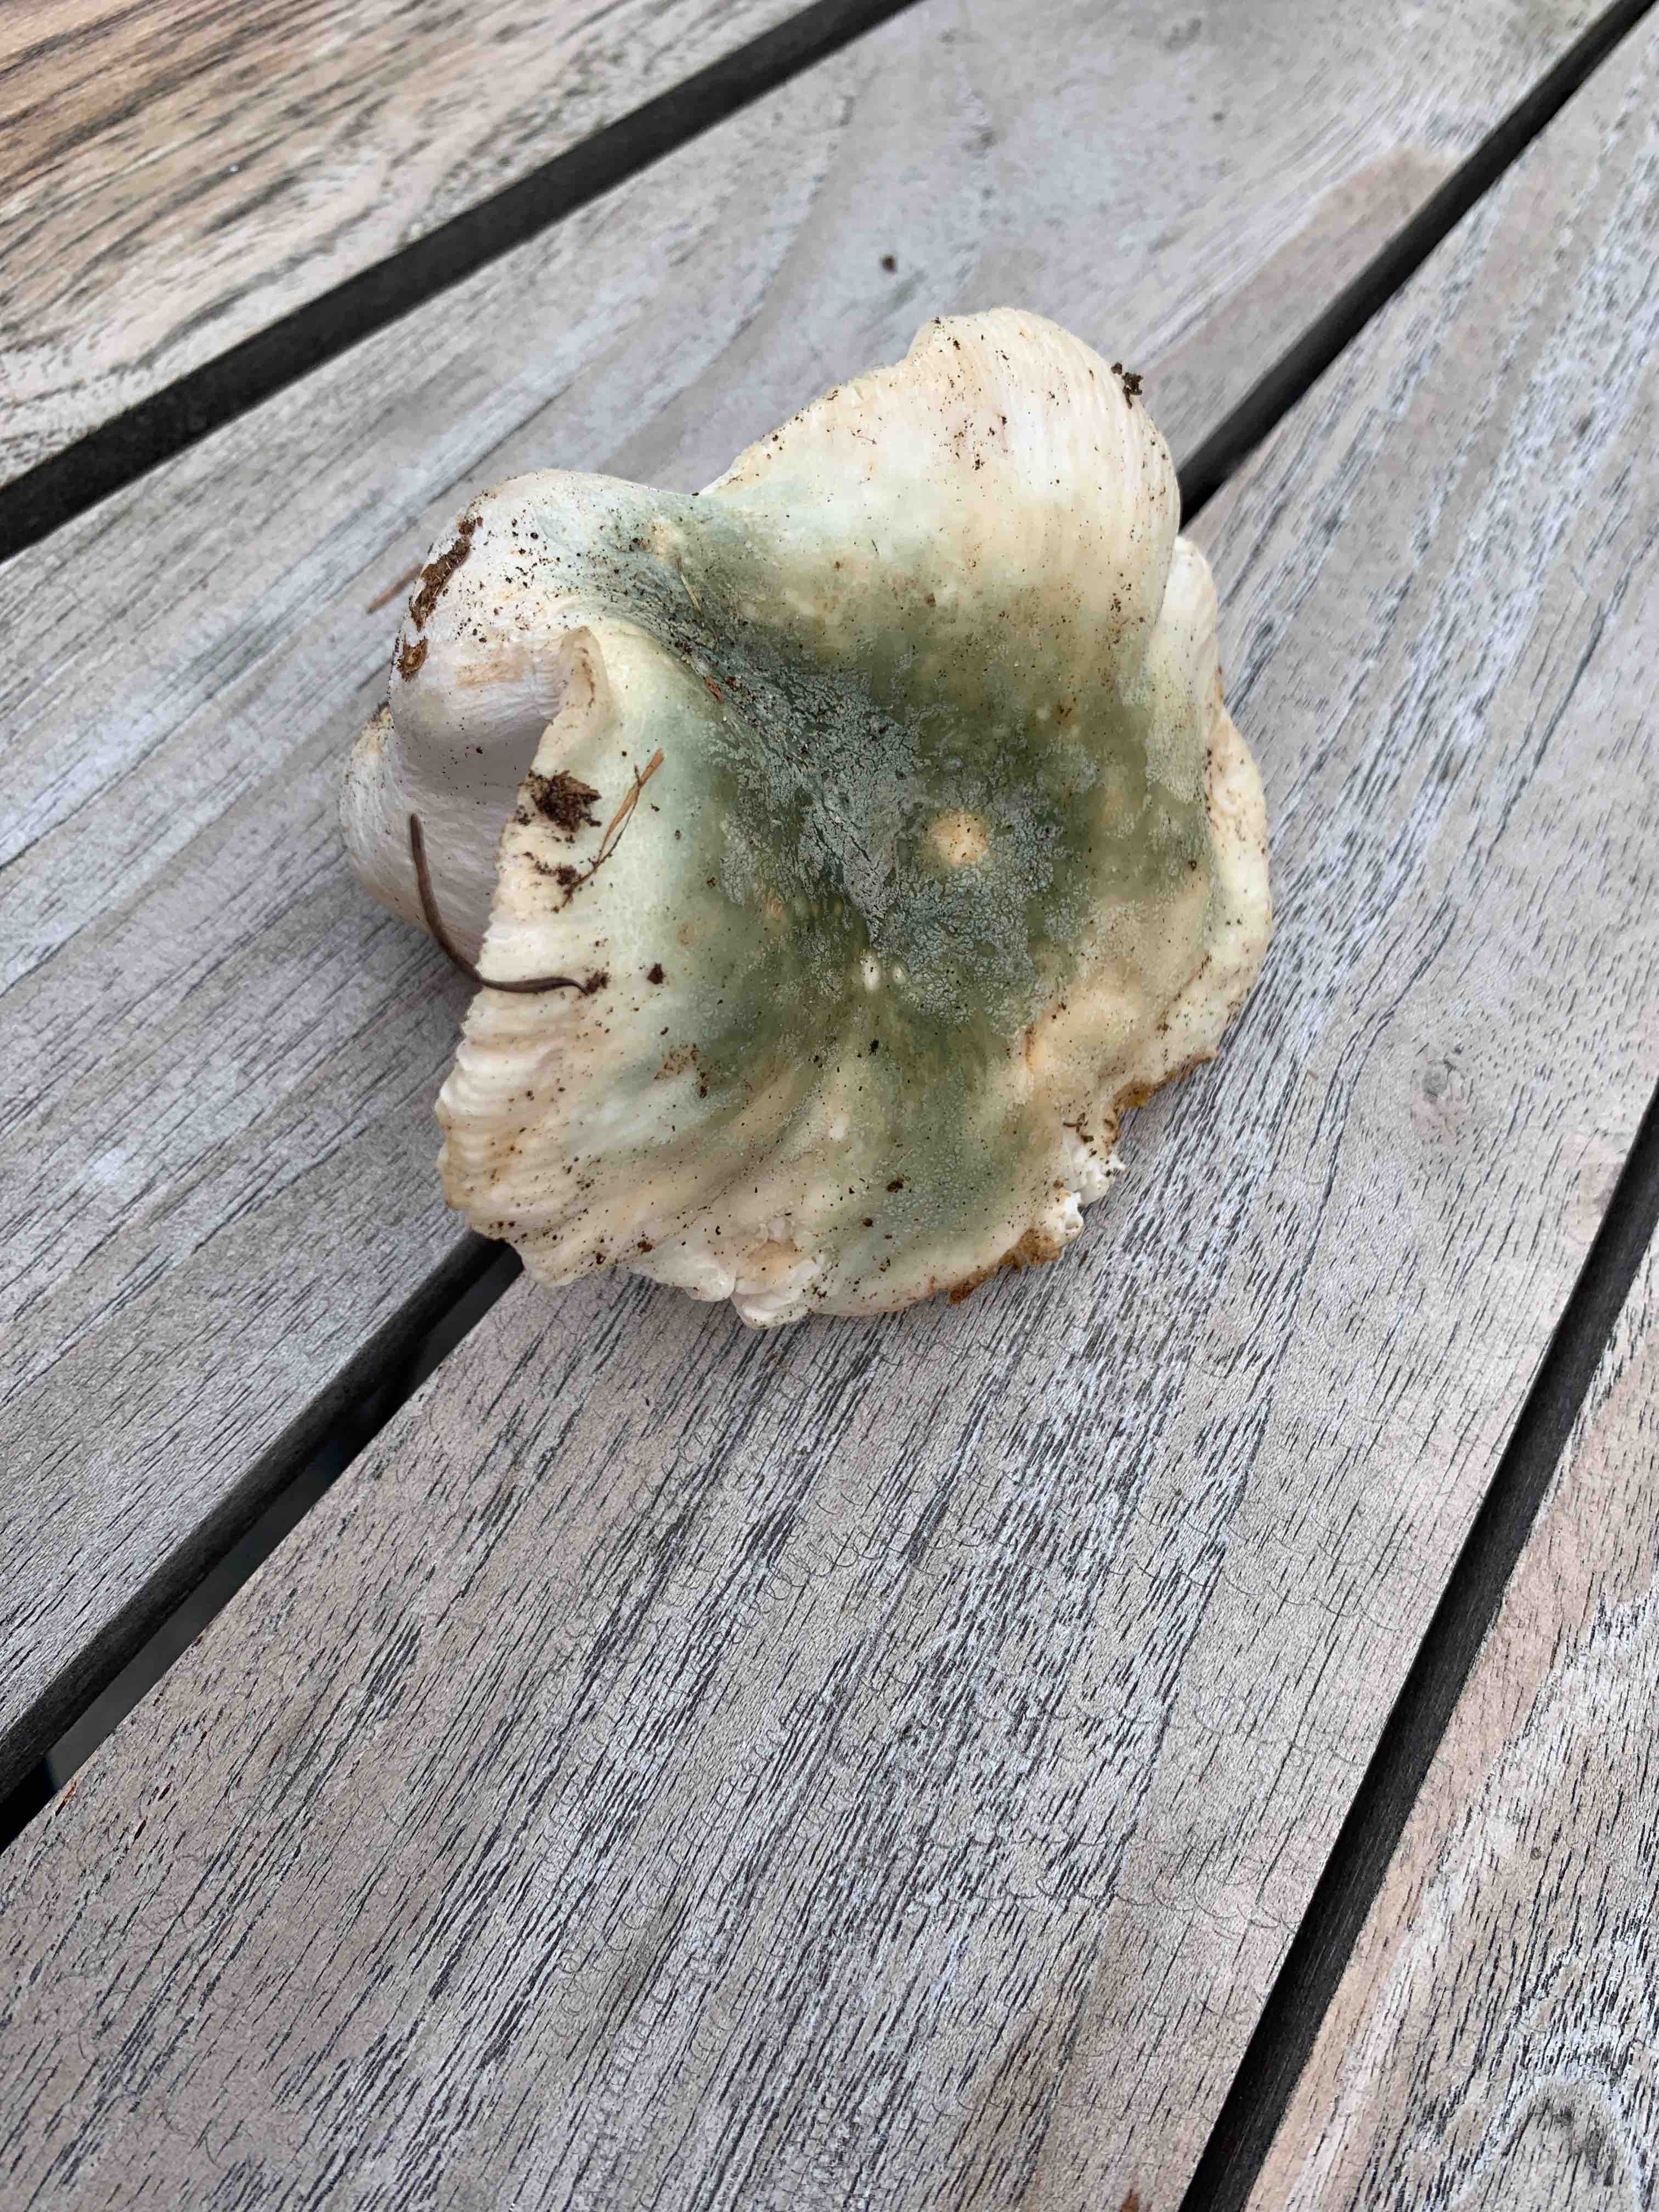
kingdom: Fungi
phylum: Basidiomycota
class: Agaricomycetes
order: Russulales
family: Russulaceae
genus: Russula
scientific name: Russula virescens
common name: spanskgrøn skørhat
